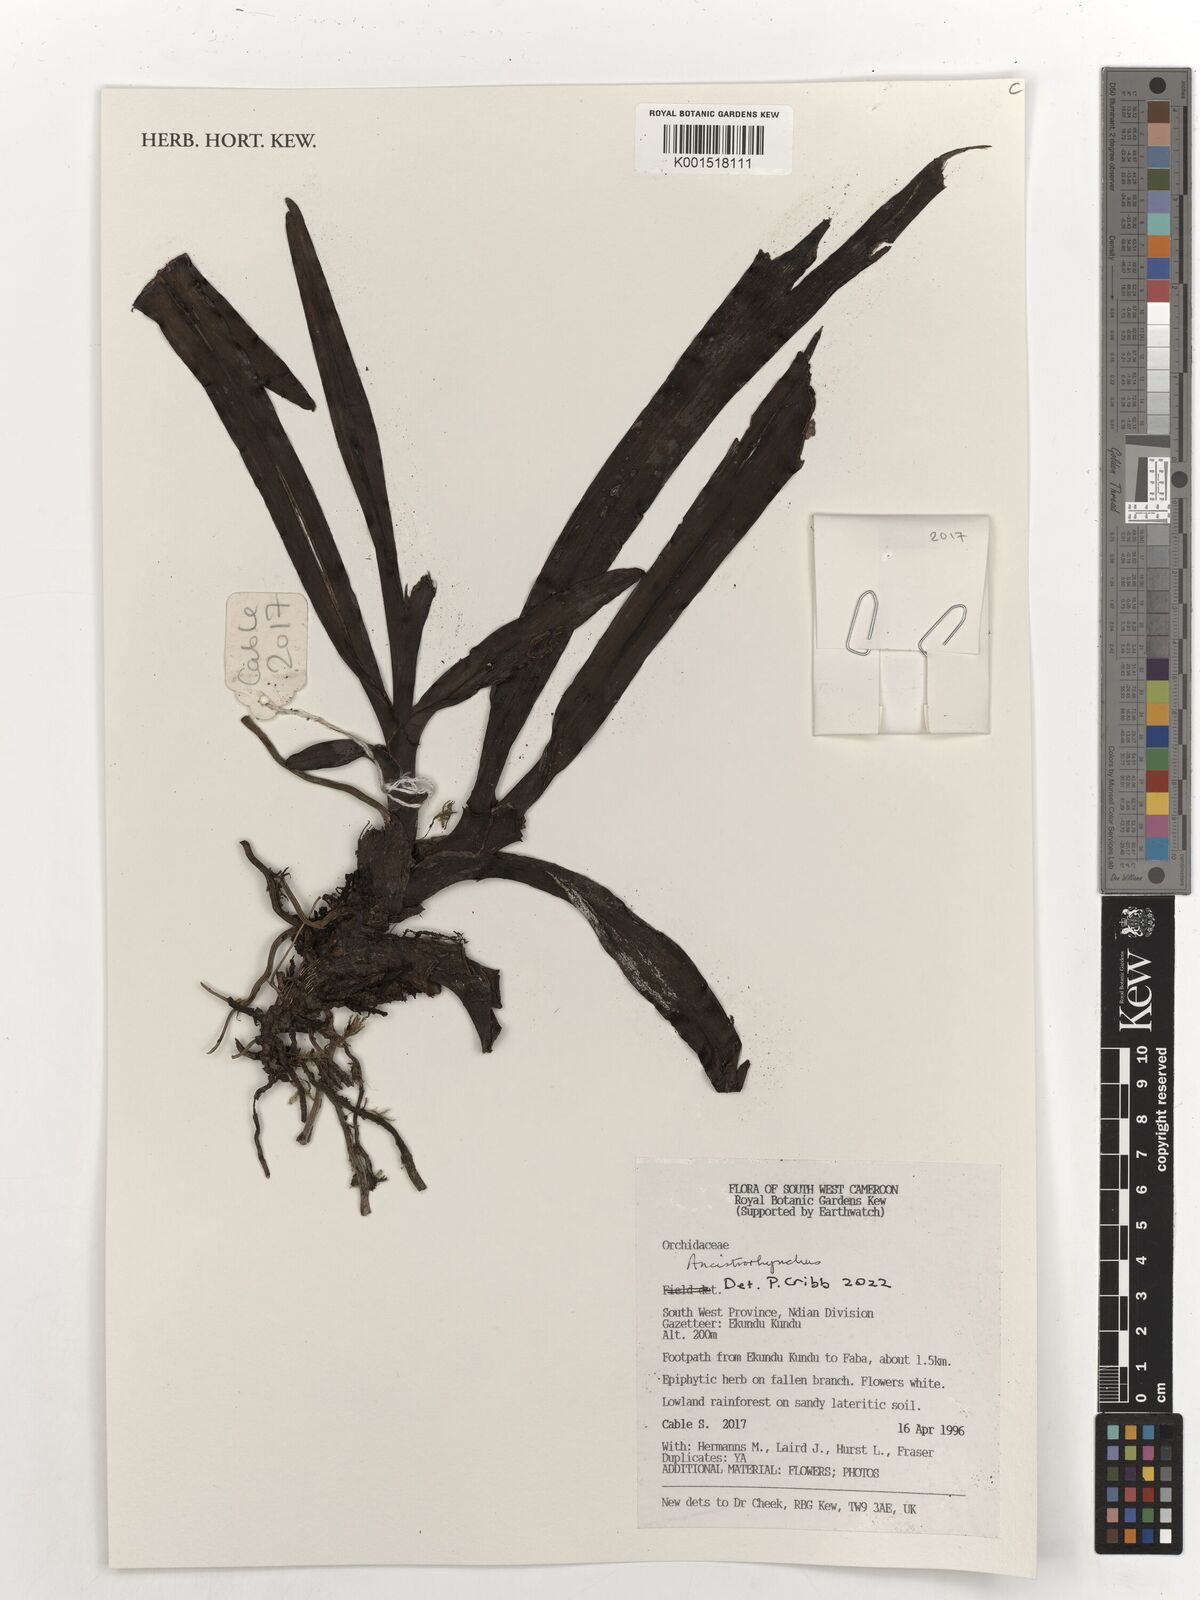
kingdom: Plantae
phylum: Tracheophyta
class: Liliopsida
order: Asparagales
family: Orchidaceae
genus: Ancistrorhynchus
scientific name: Ancistrorhynchus
